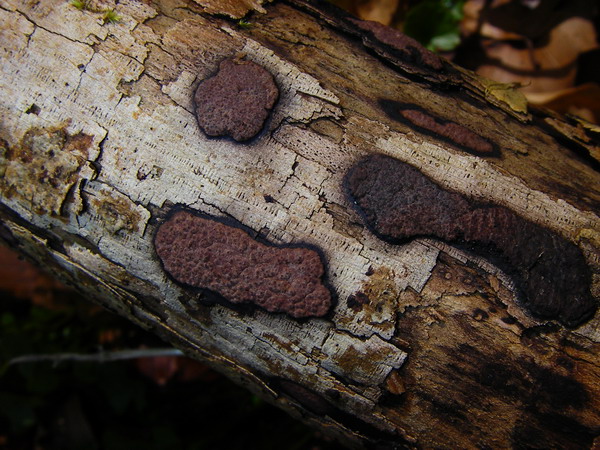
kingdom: Fungi
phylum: Ascomycota
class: Sordariomycetes
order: Xylariales
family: Hypoxylaceae
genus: Hypoxylon
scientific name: Hypoxylon petriniae
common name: nedsænket kulbær
